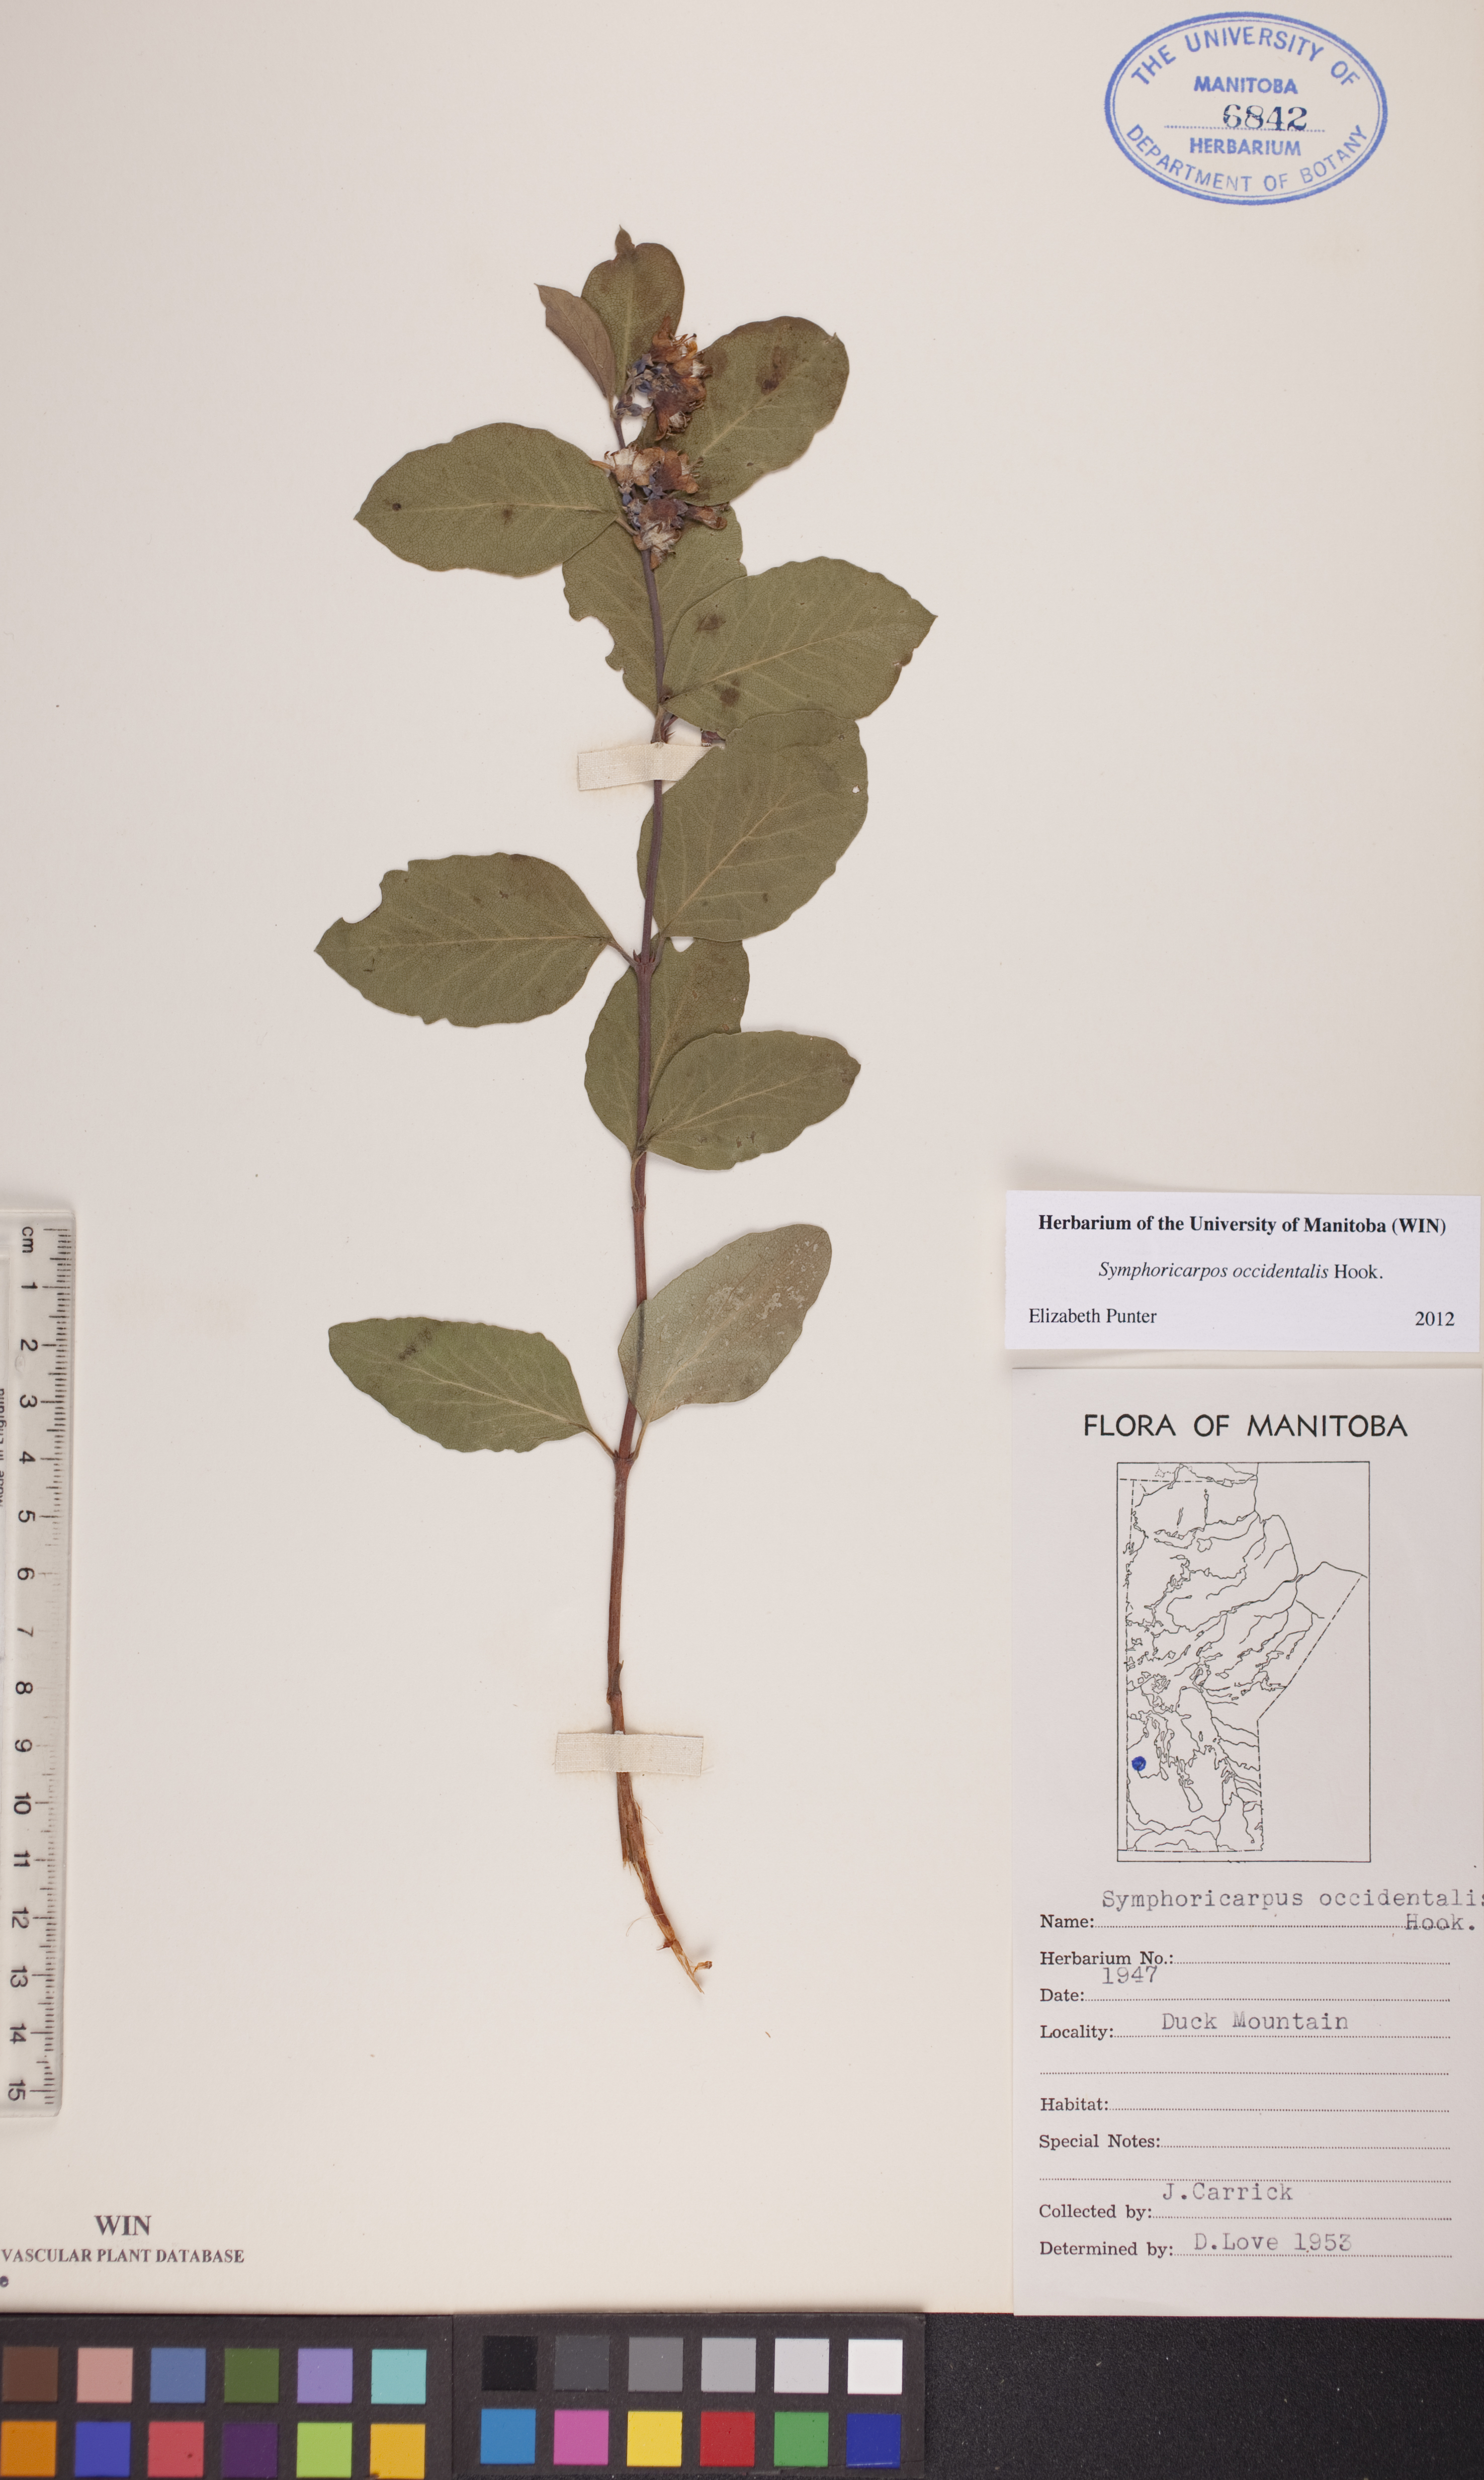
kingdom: Plantae
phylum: Tracheophyta
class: Magnoliopsida
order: Dipsacales
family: Caprifoliaceae
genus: Symphoricarpos
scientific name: Symphoricarpos occidentalis
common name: Wolfberry
